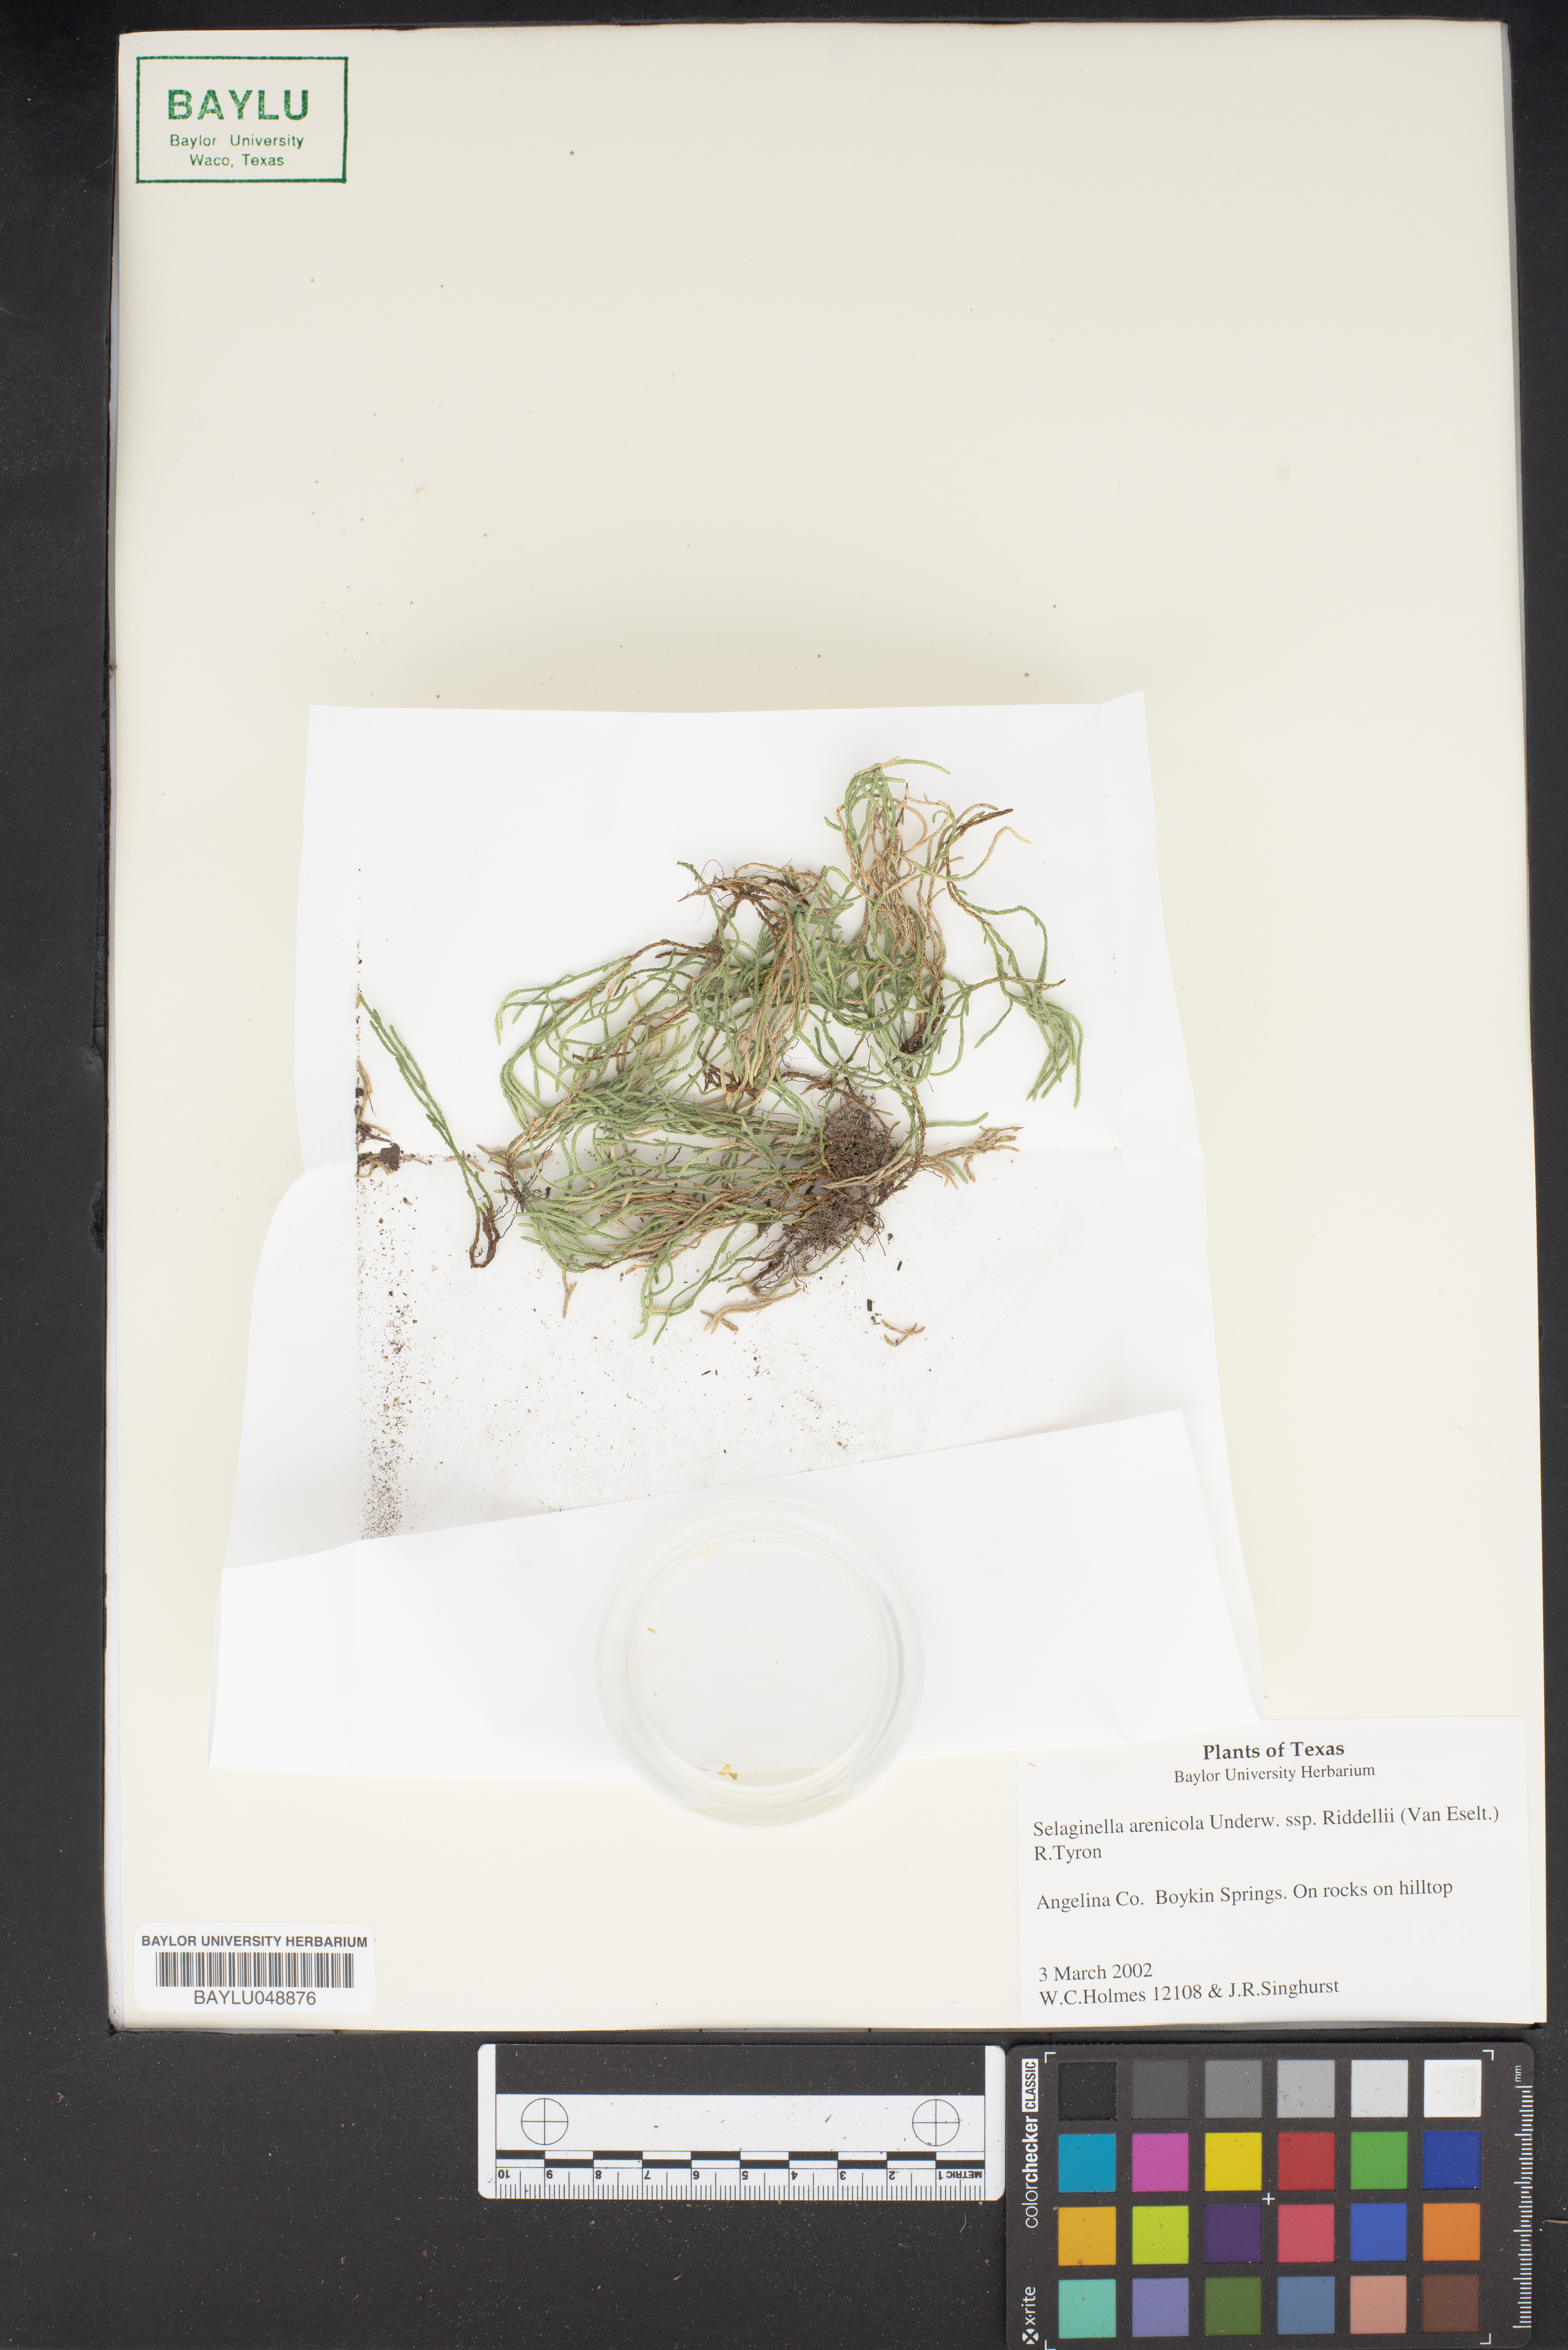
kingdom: Plantae
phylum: Tracheophyta
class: Lycopodiopsida
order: Selaginellales
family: Selaginellaceae
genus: Selaginella
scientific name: Selaginella arenicola
